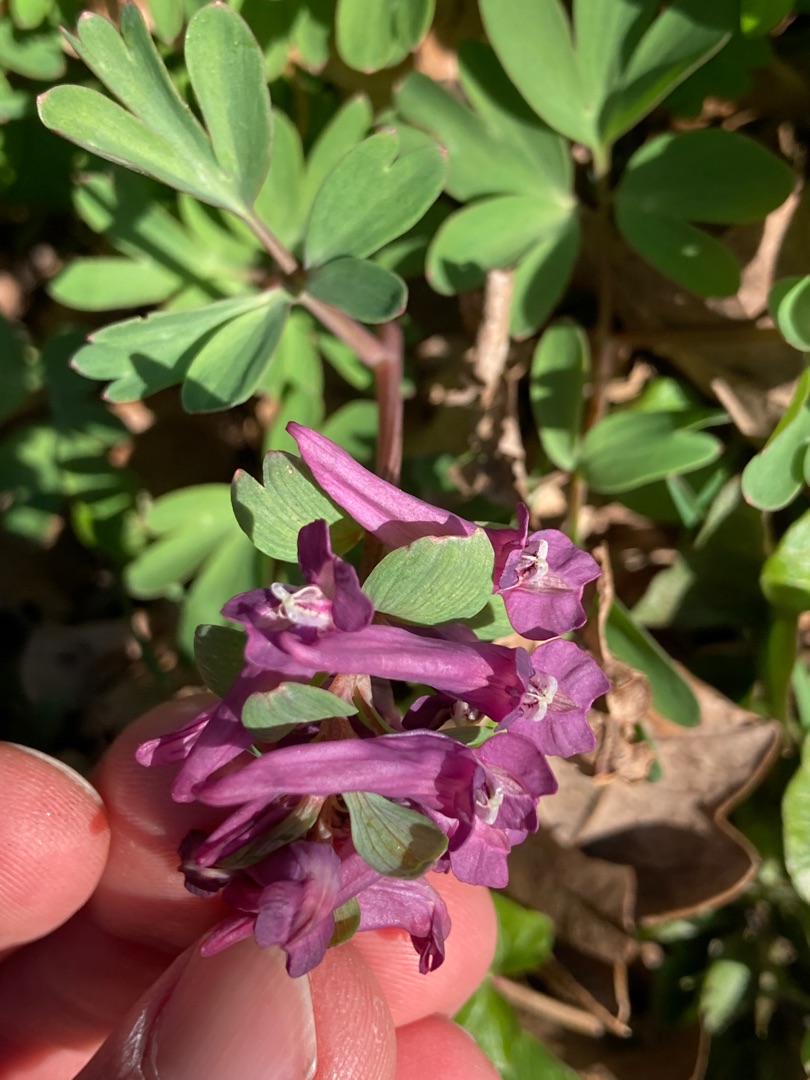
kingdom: Plantae
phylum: Tracheophyta
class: Magnoliopsida
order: Ranunculales
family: Papaveraceae
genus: Corydalis
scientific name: Corydalis
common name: Lærkespore (Corydalis-slægten)
